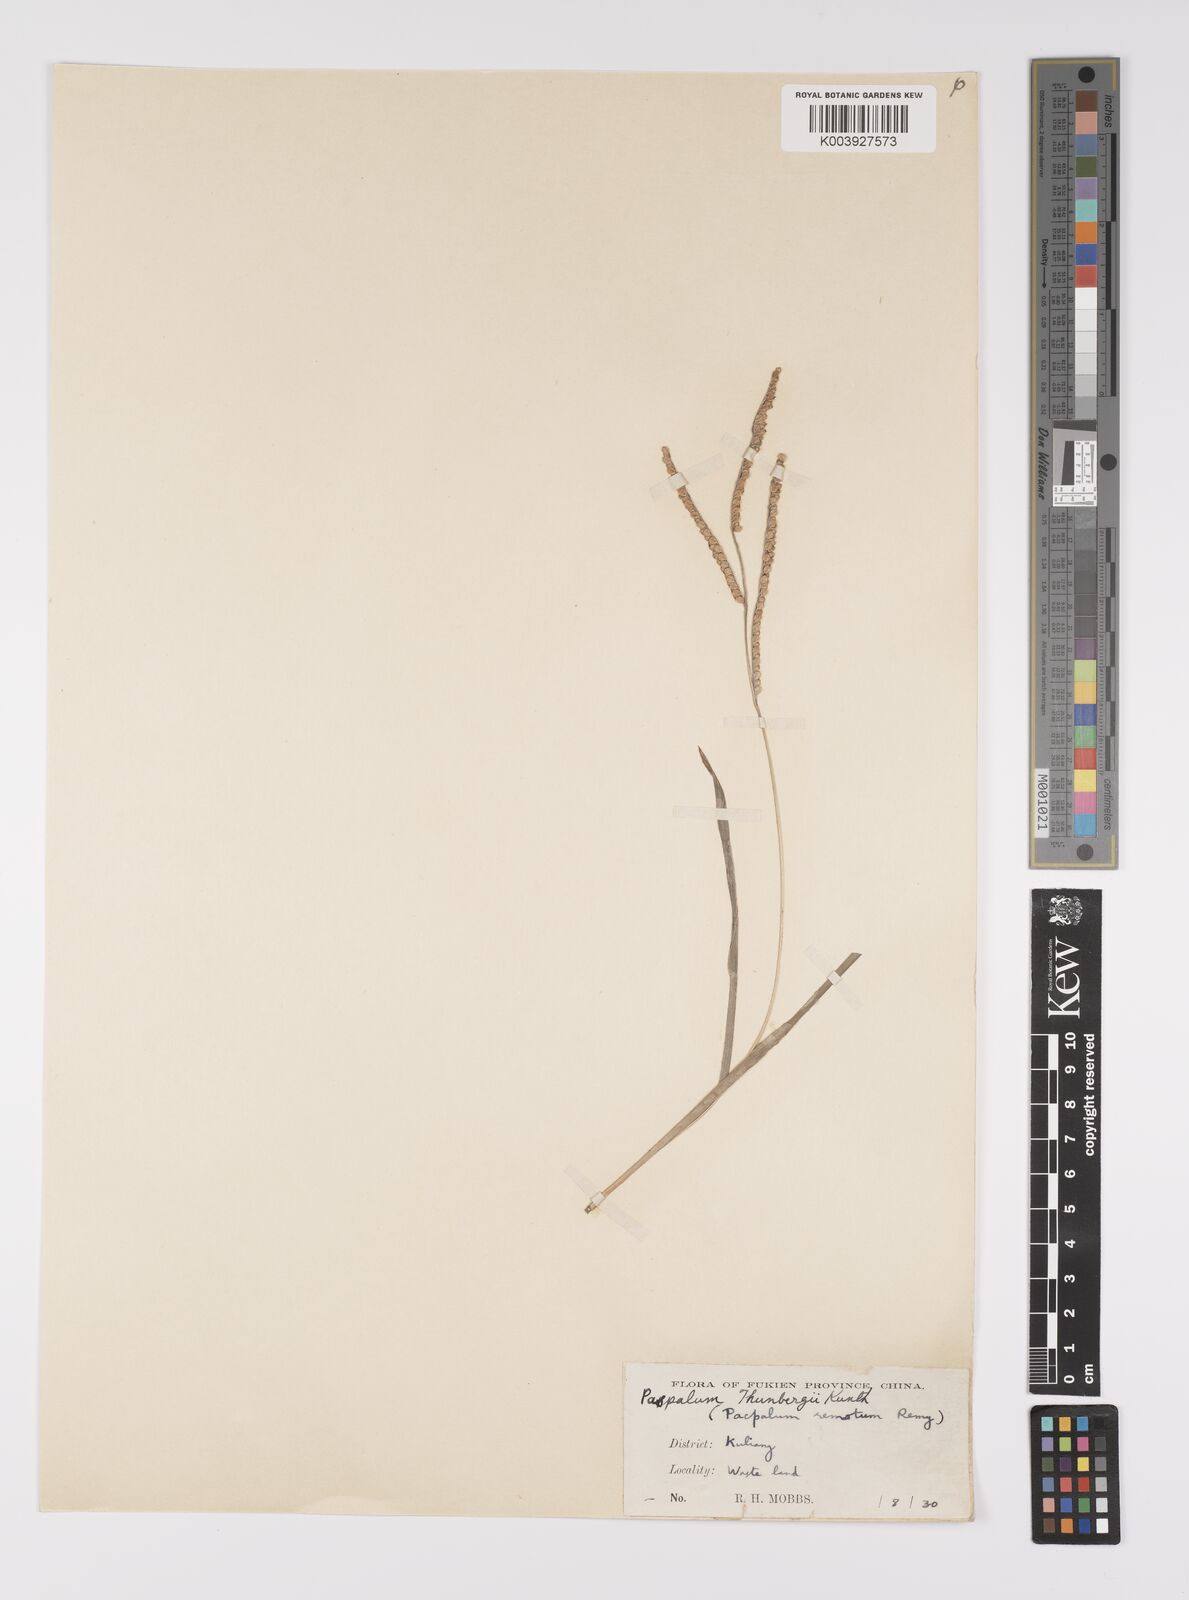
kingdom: Plantae
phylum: Tracheophyta
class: Liliopsida
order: Poales
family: Poaceae
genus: Paspalum
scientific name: Paspalum thunbergii
